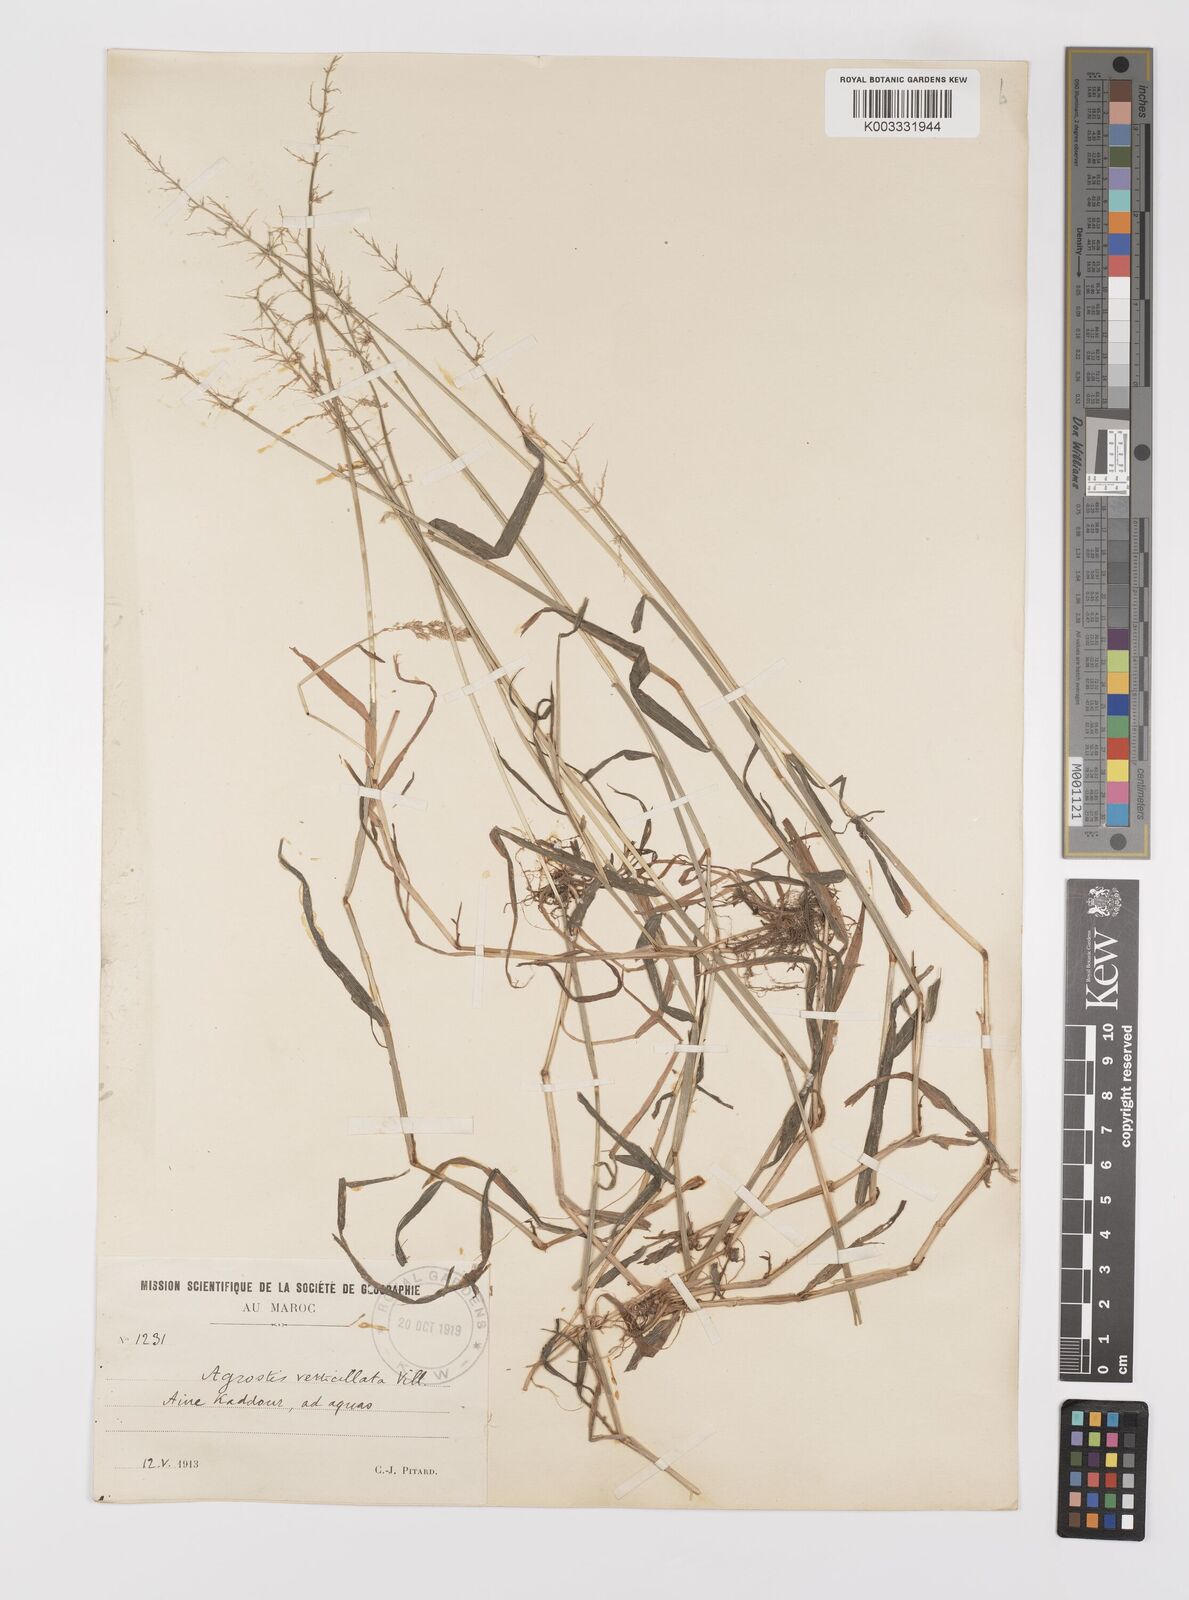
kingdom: Plantae
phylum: Tracheophyta
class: Liliopsida
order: Poales
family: Poaceae
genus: Polypogon
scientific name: Polypogon viridis
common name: Water bent
